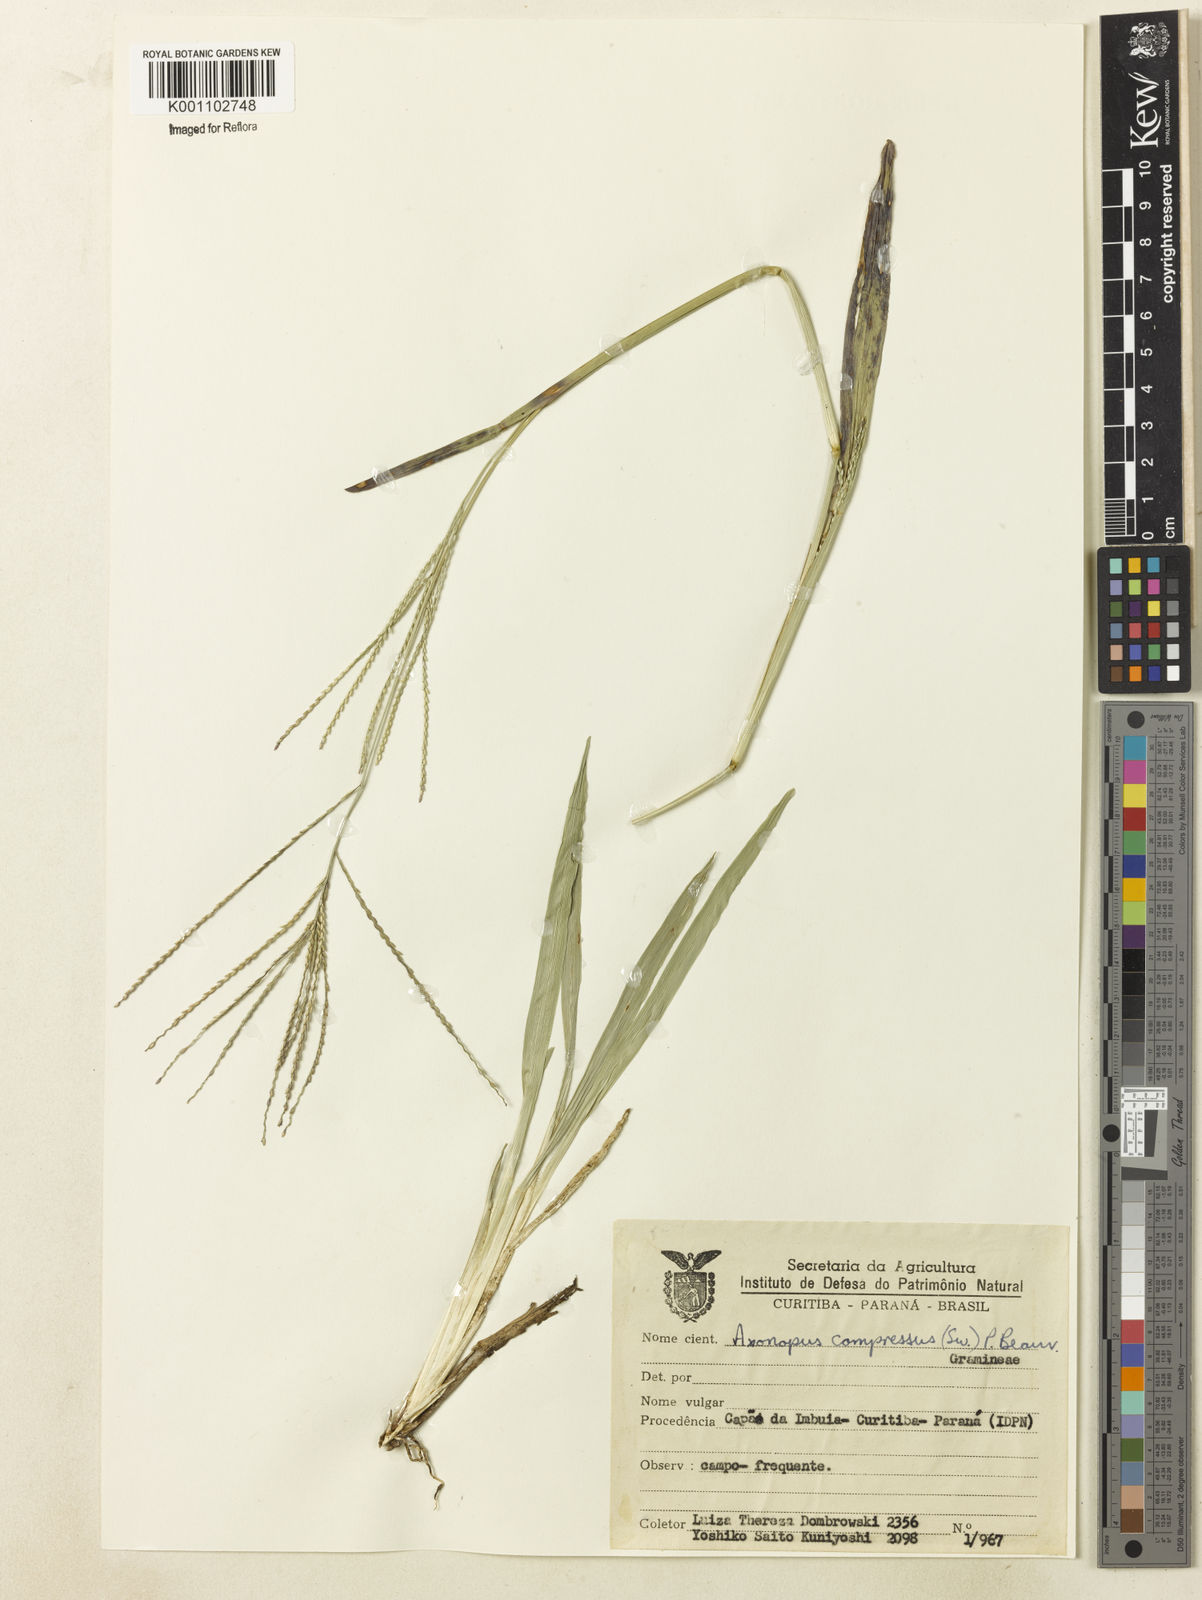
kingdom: Plantae
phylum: Tracheophyta
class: Liliopsida
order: Poales
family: Poaceae
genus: Axonopus
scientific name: Axonopus polystachyus
